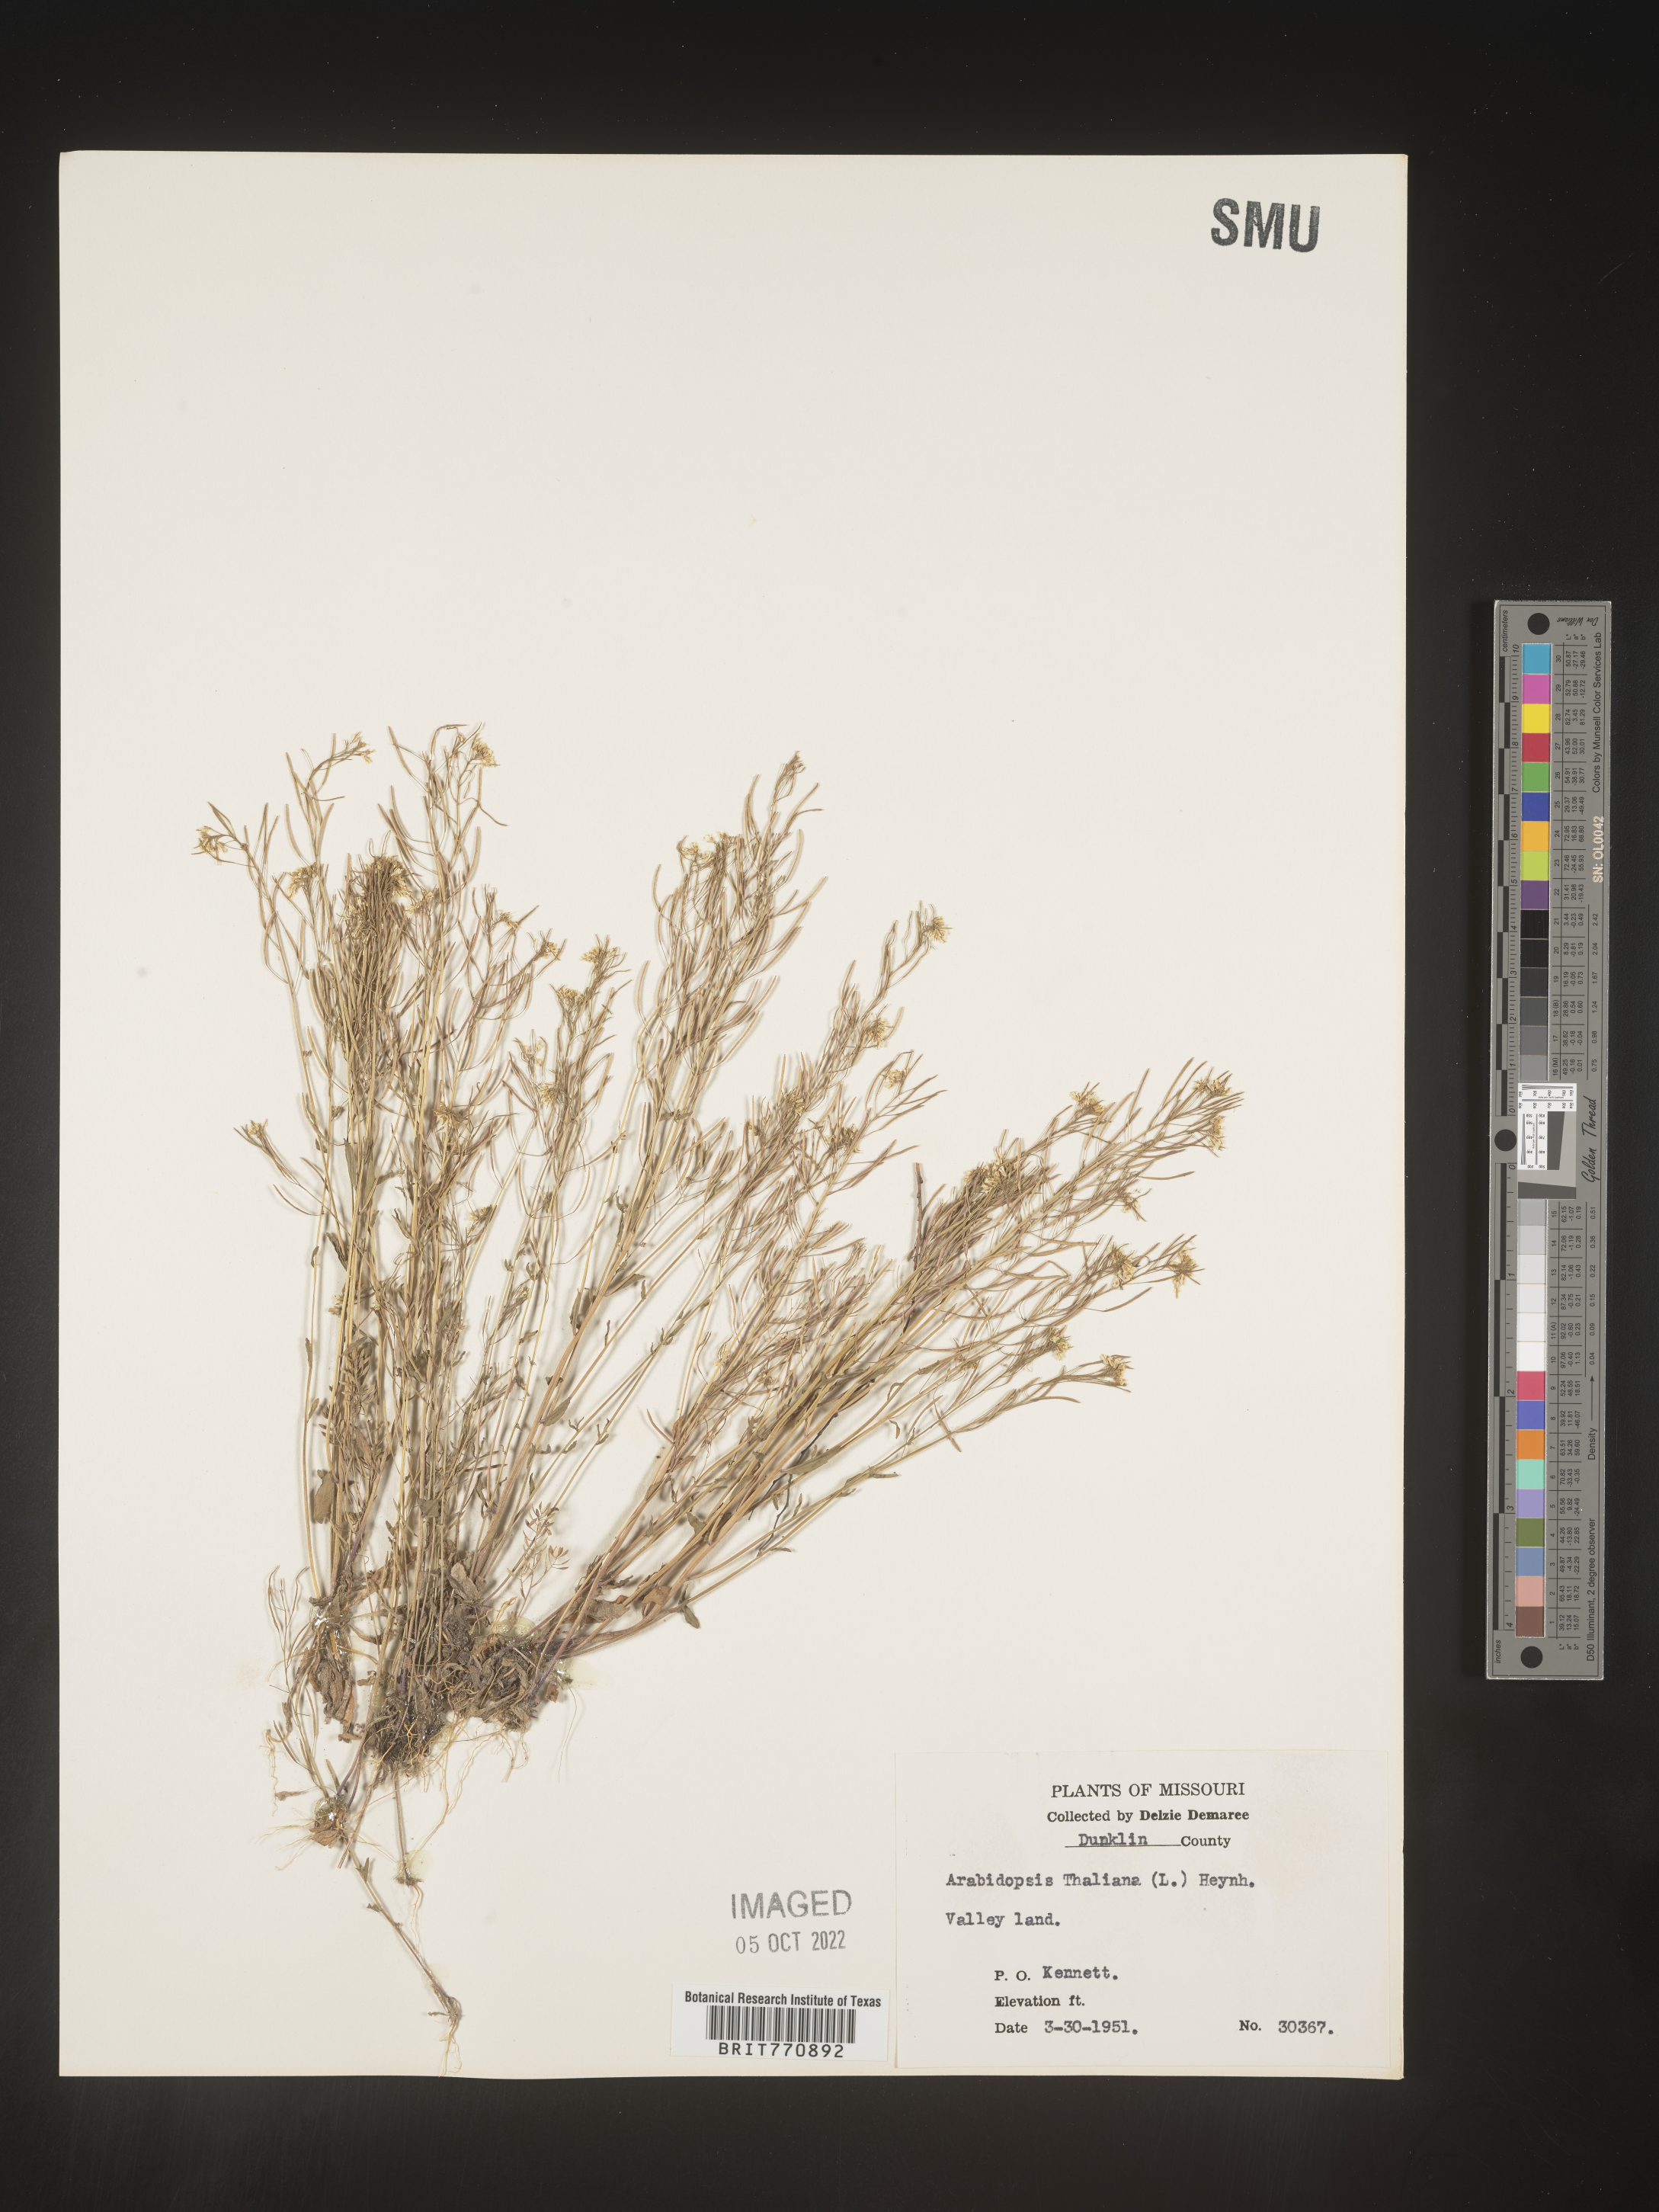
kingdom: Plantae
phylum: Tracheophyta
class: Magnoliopsida
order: Brassicales
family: Brassicaceae
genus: Arabidopsis
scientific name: Arabidopsis thaliana
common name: Thale cress
